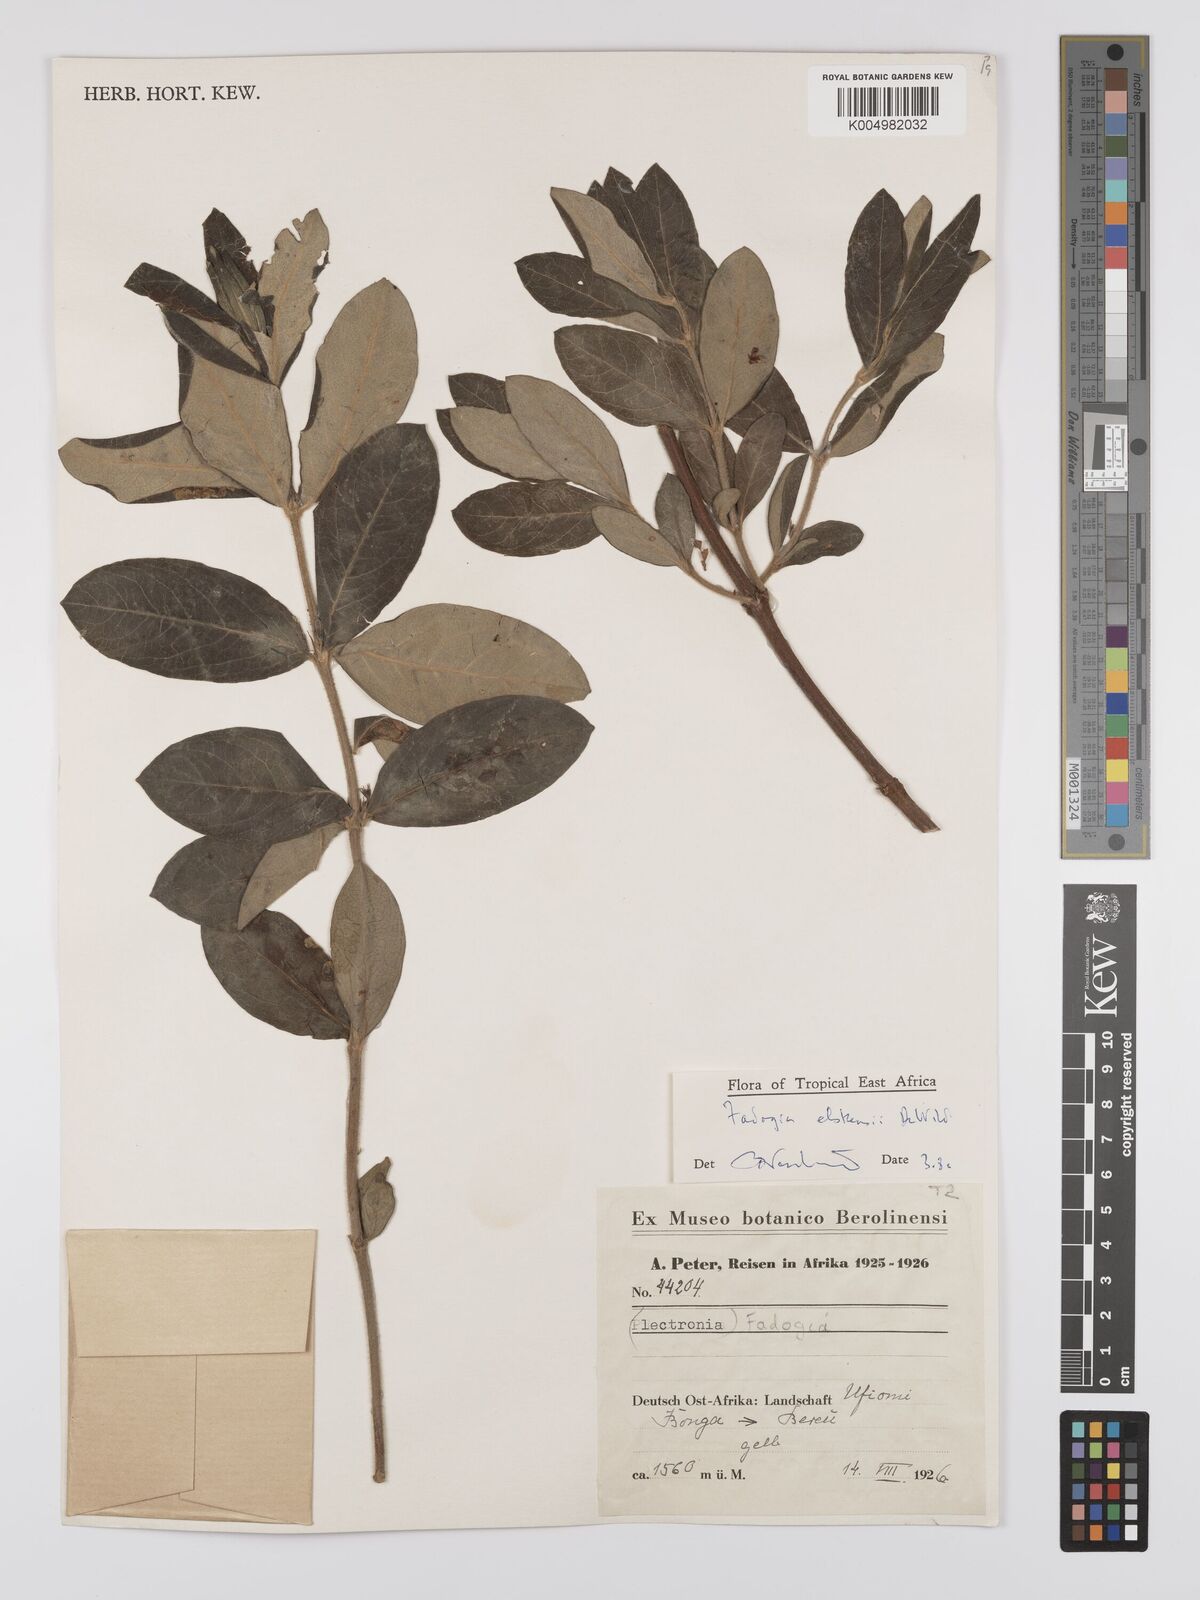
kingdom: Plantae
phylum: Tracheophyta
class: Magnoliopsida
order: Gentianales
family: Rubiaceae
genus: Fadogia
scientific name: Fadogia elskensii
